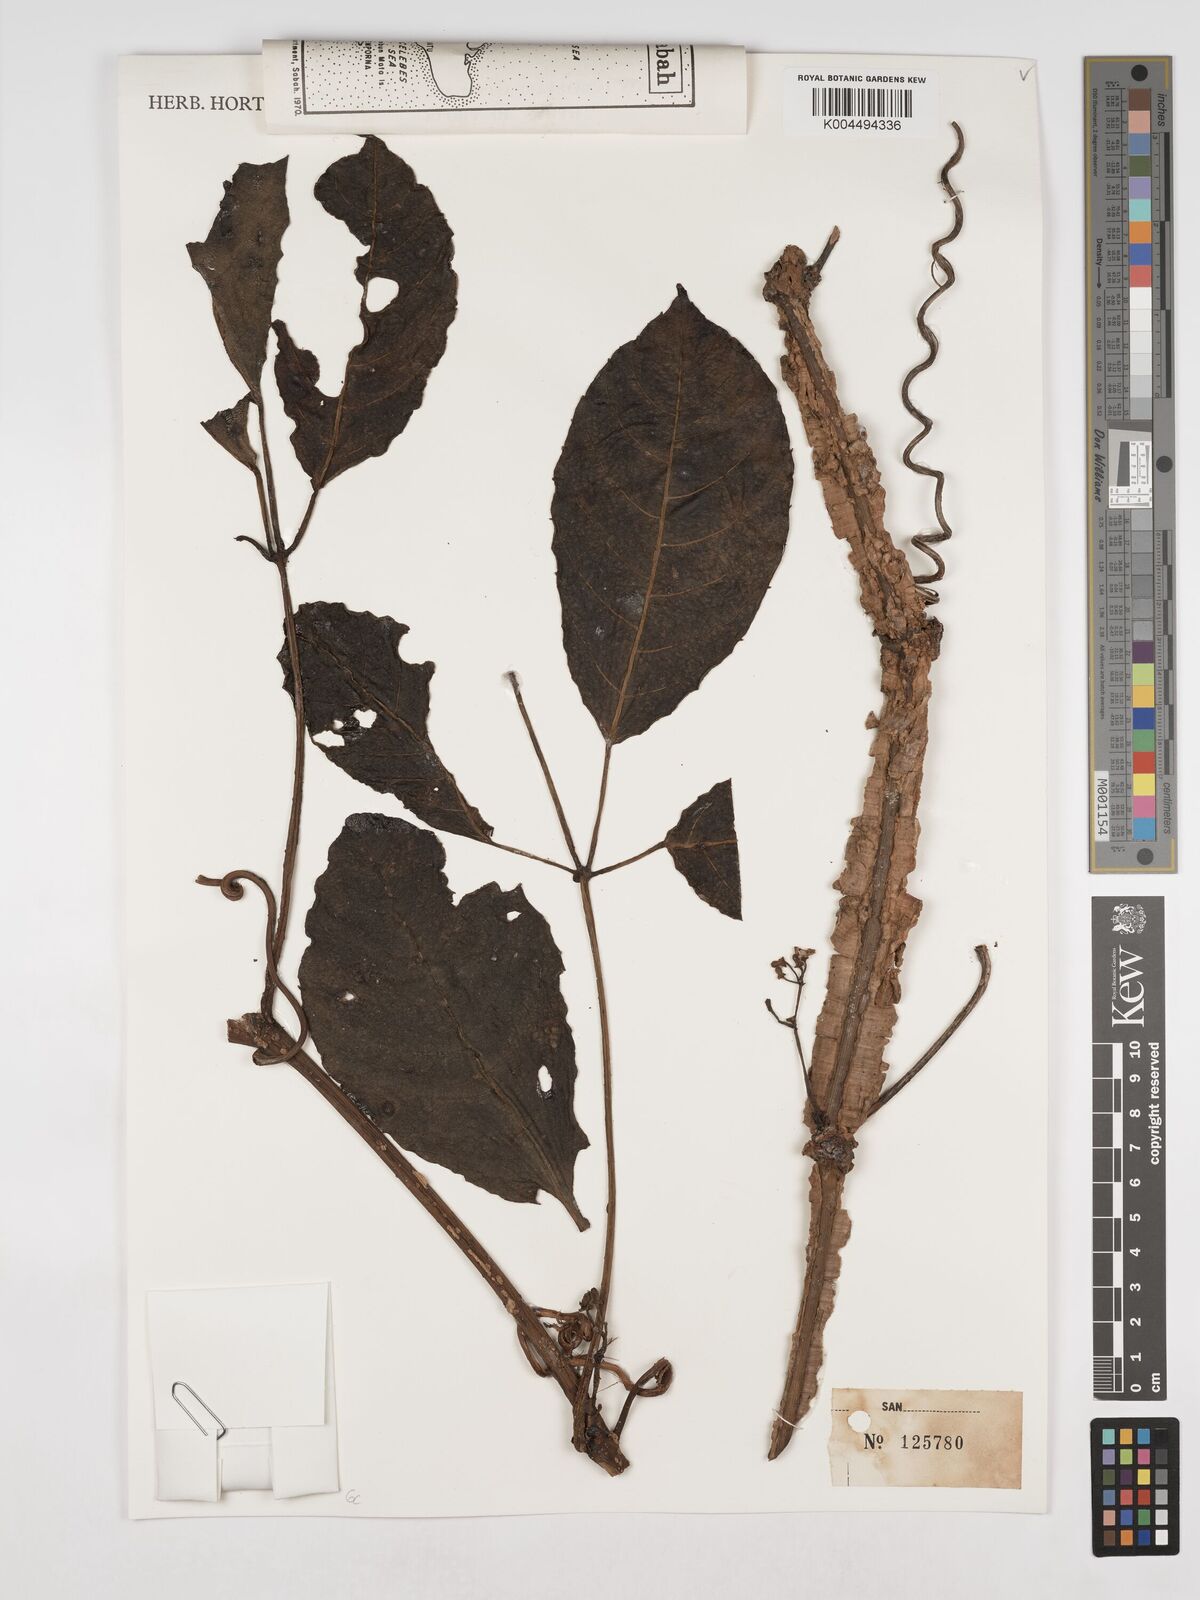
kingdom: Plantae
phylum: Tracheophyta
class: Magnoliopsida
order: Vitales
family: Vitaceae
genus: Tetrastigma
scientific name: Tetrastigma leucostaphylum
